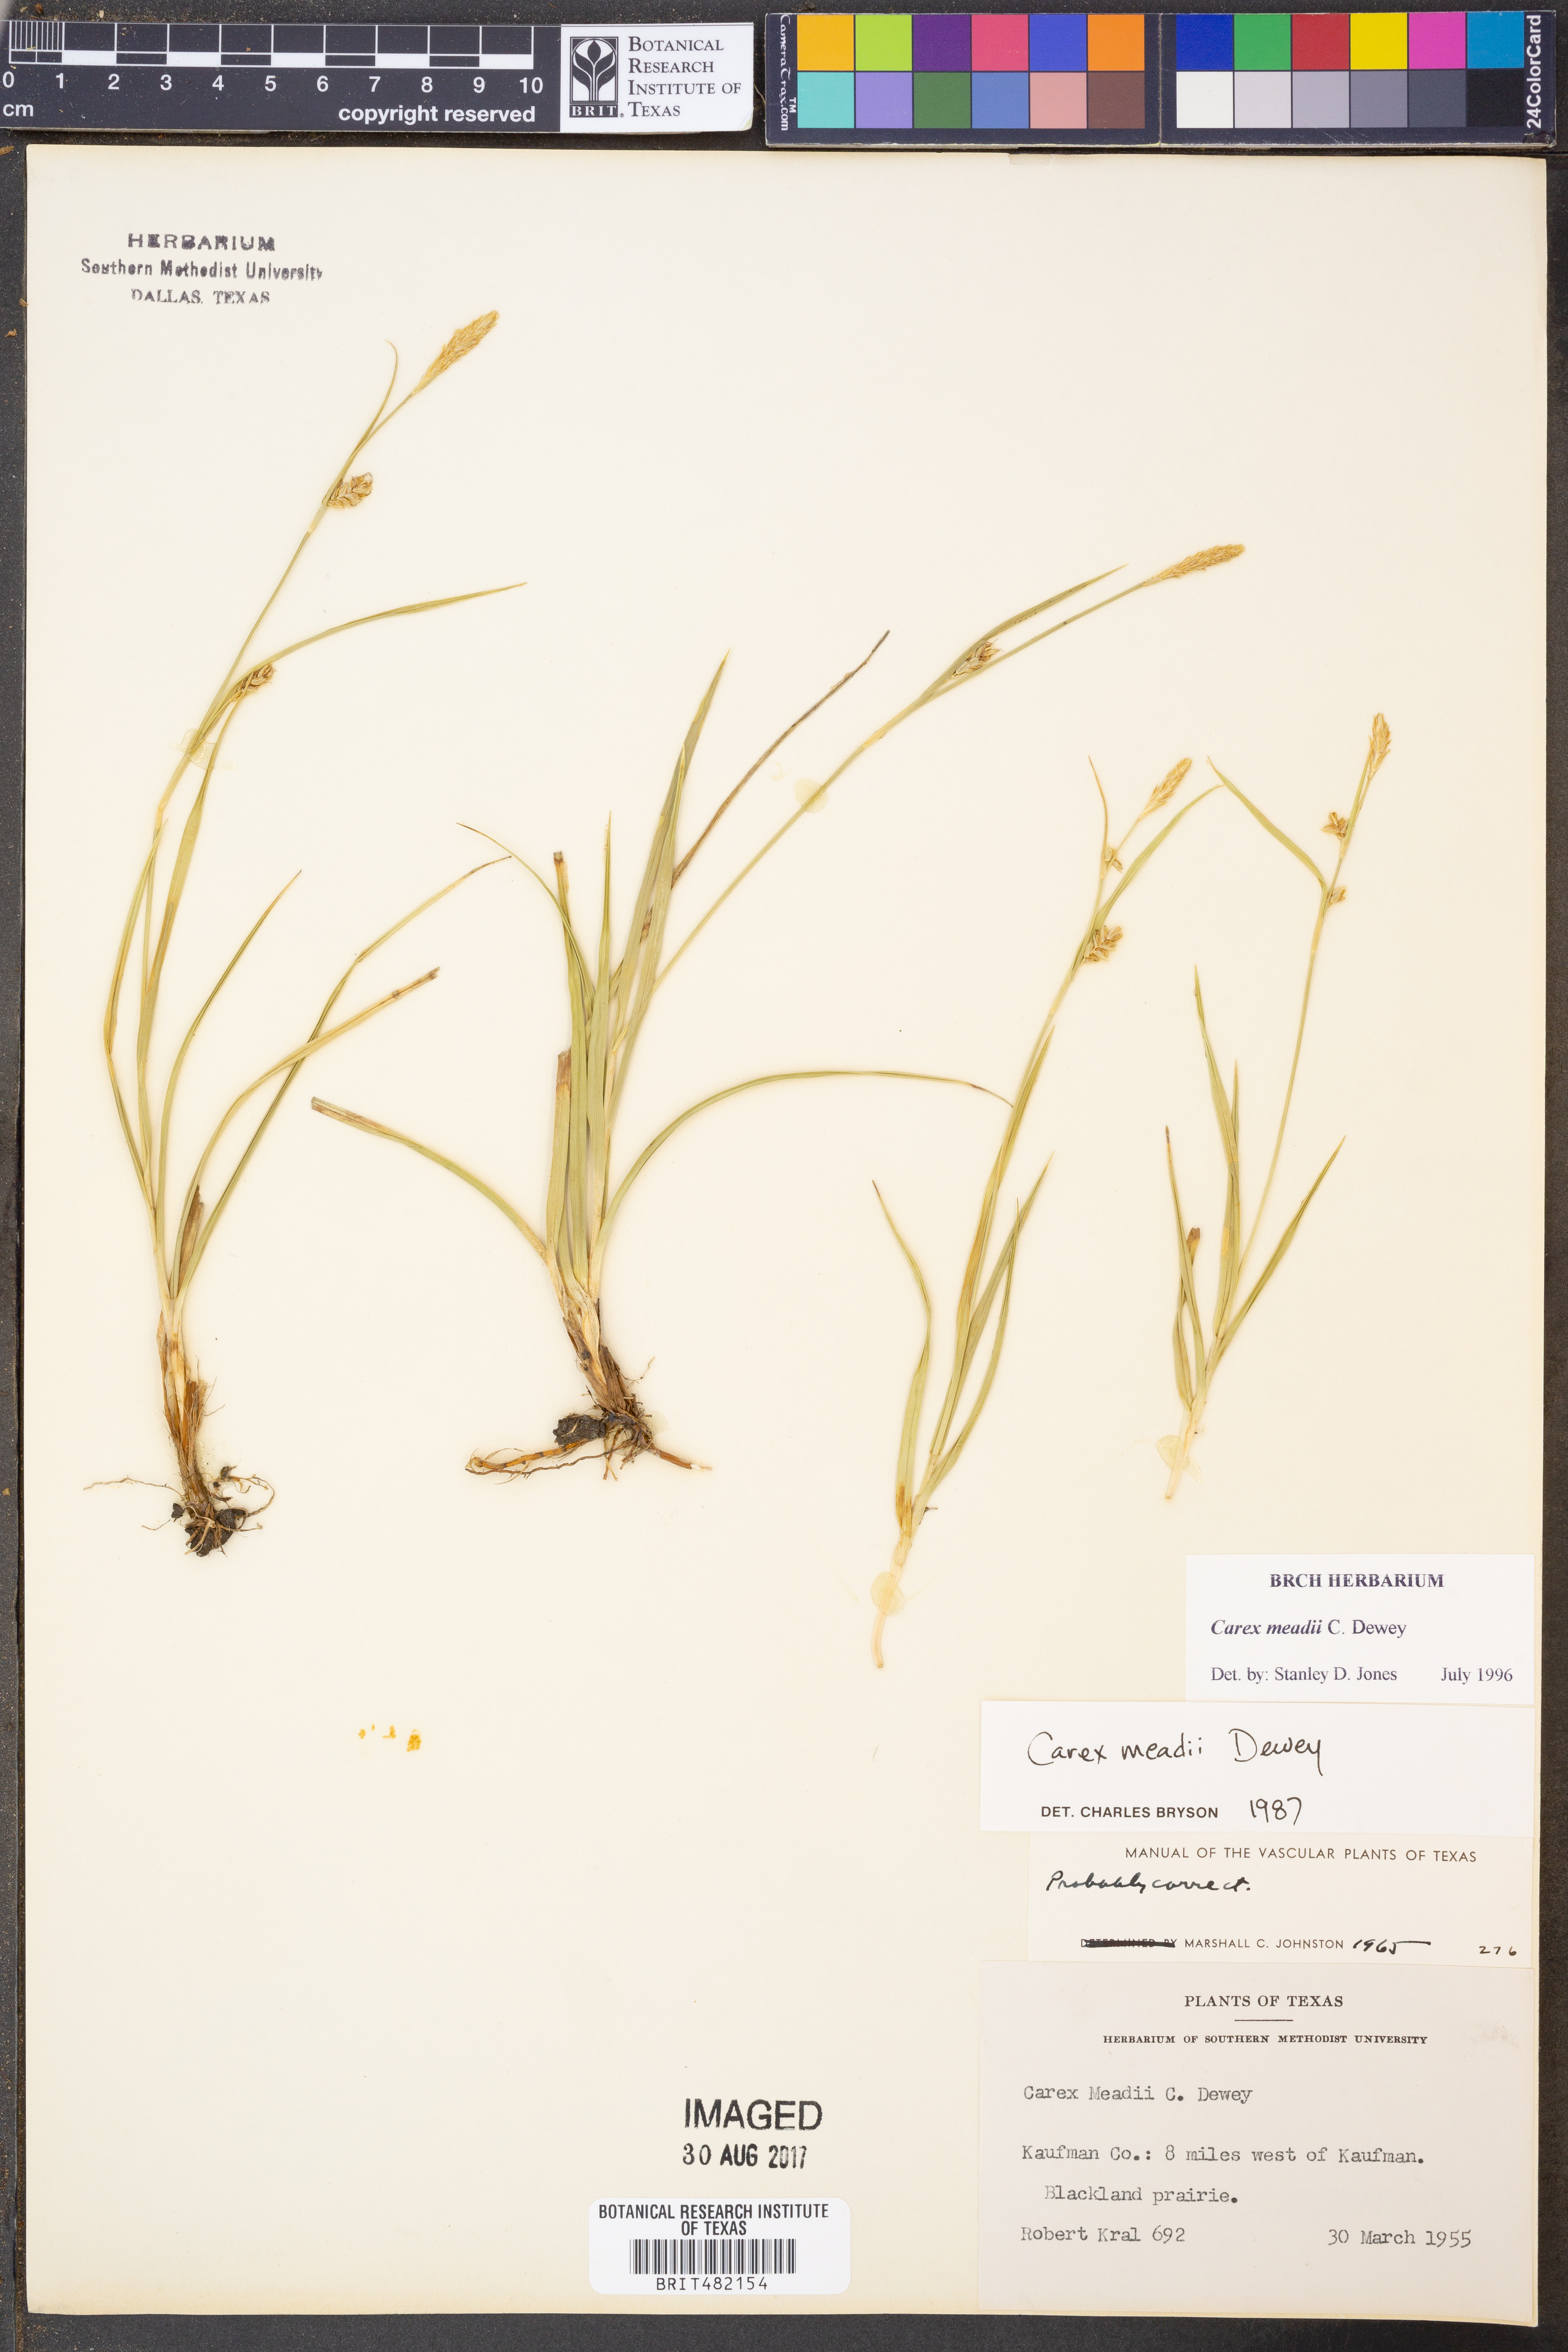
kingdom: Plantae
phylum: Tracheophyta
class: Liliopsida
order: Poales
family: Cyperaceae
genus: Carex
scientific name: Carex meadii
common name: Mead's sedge
